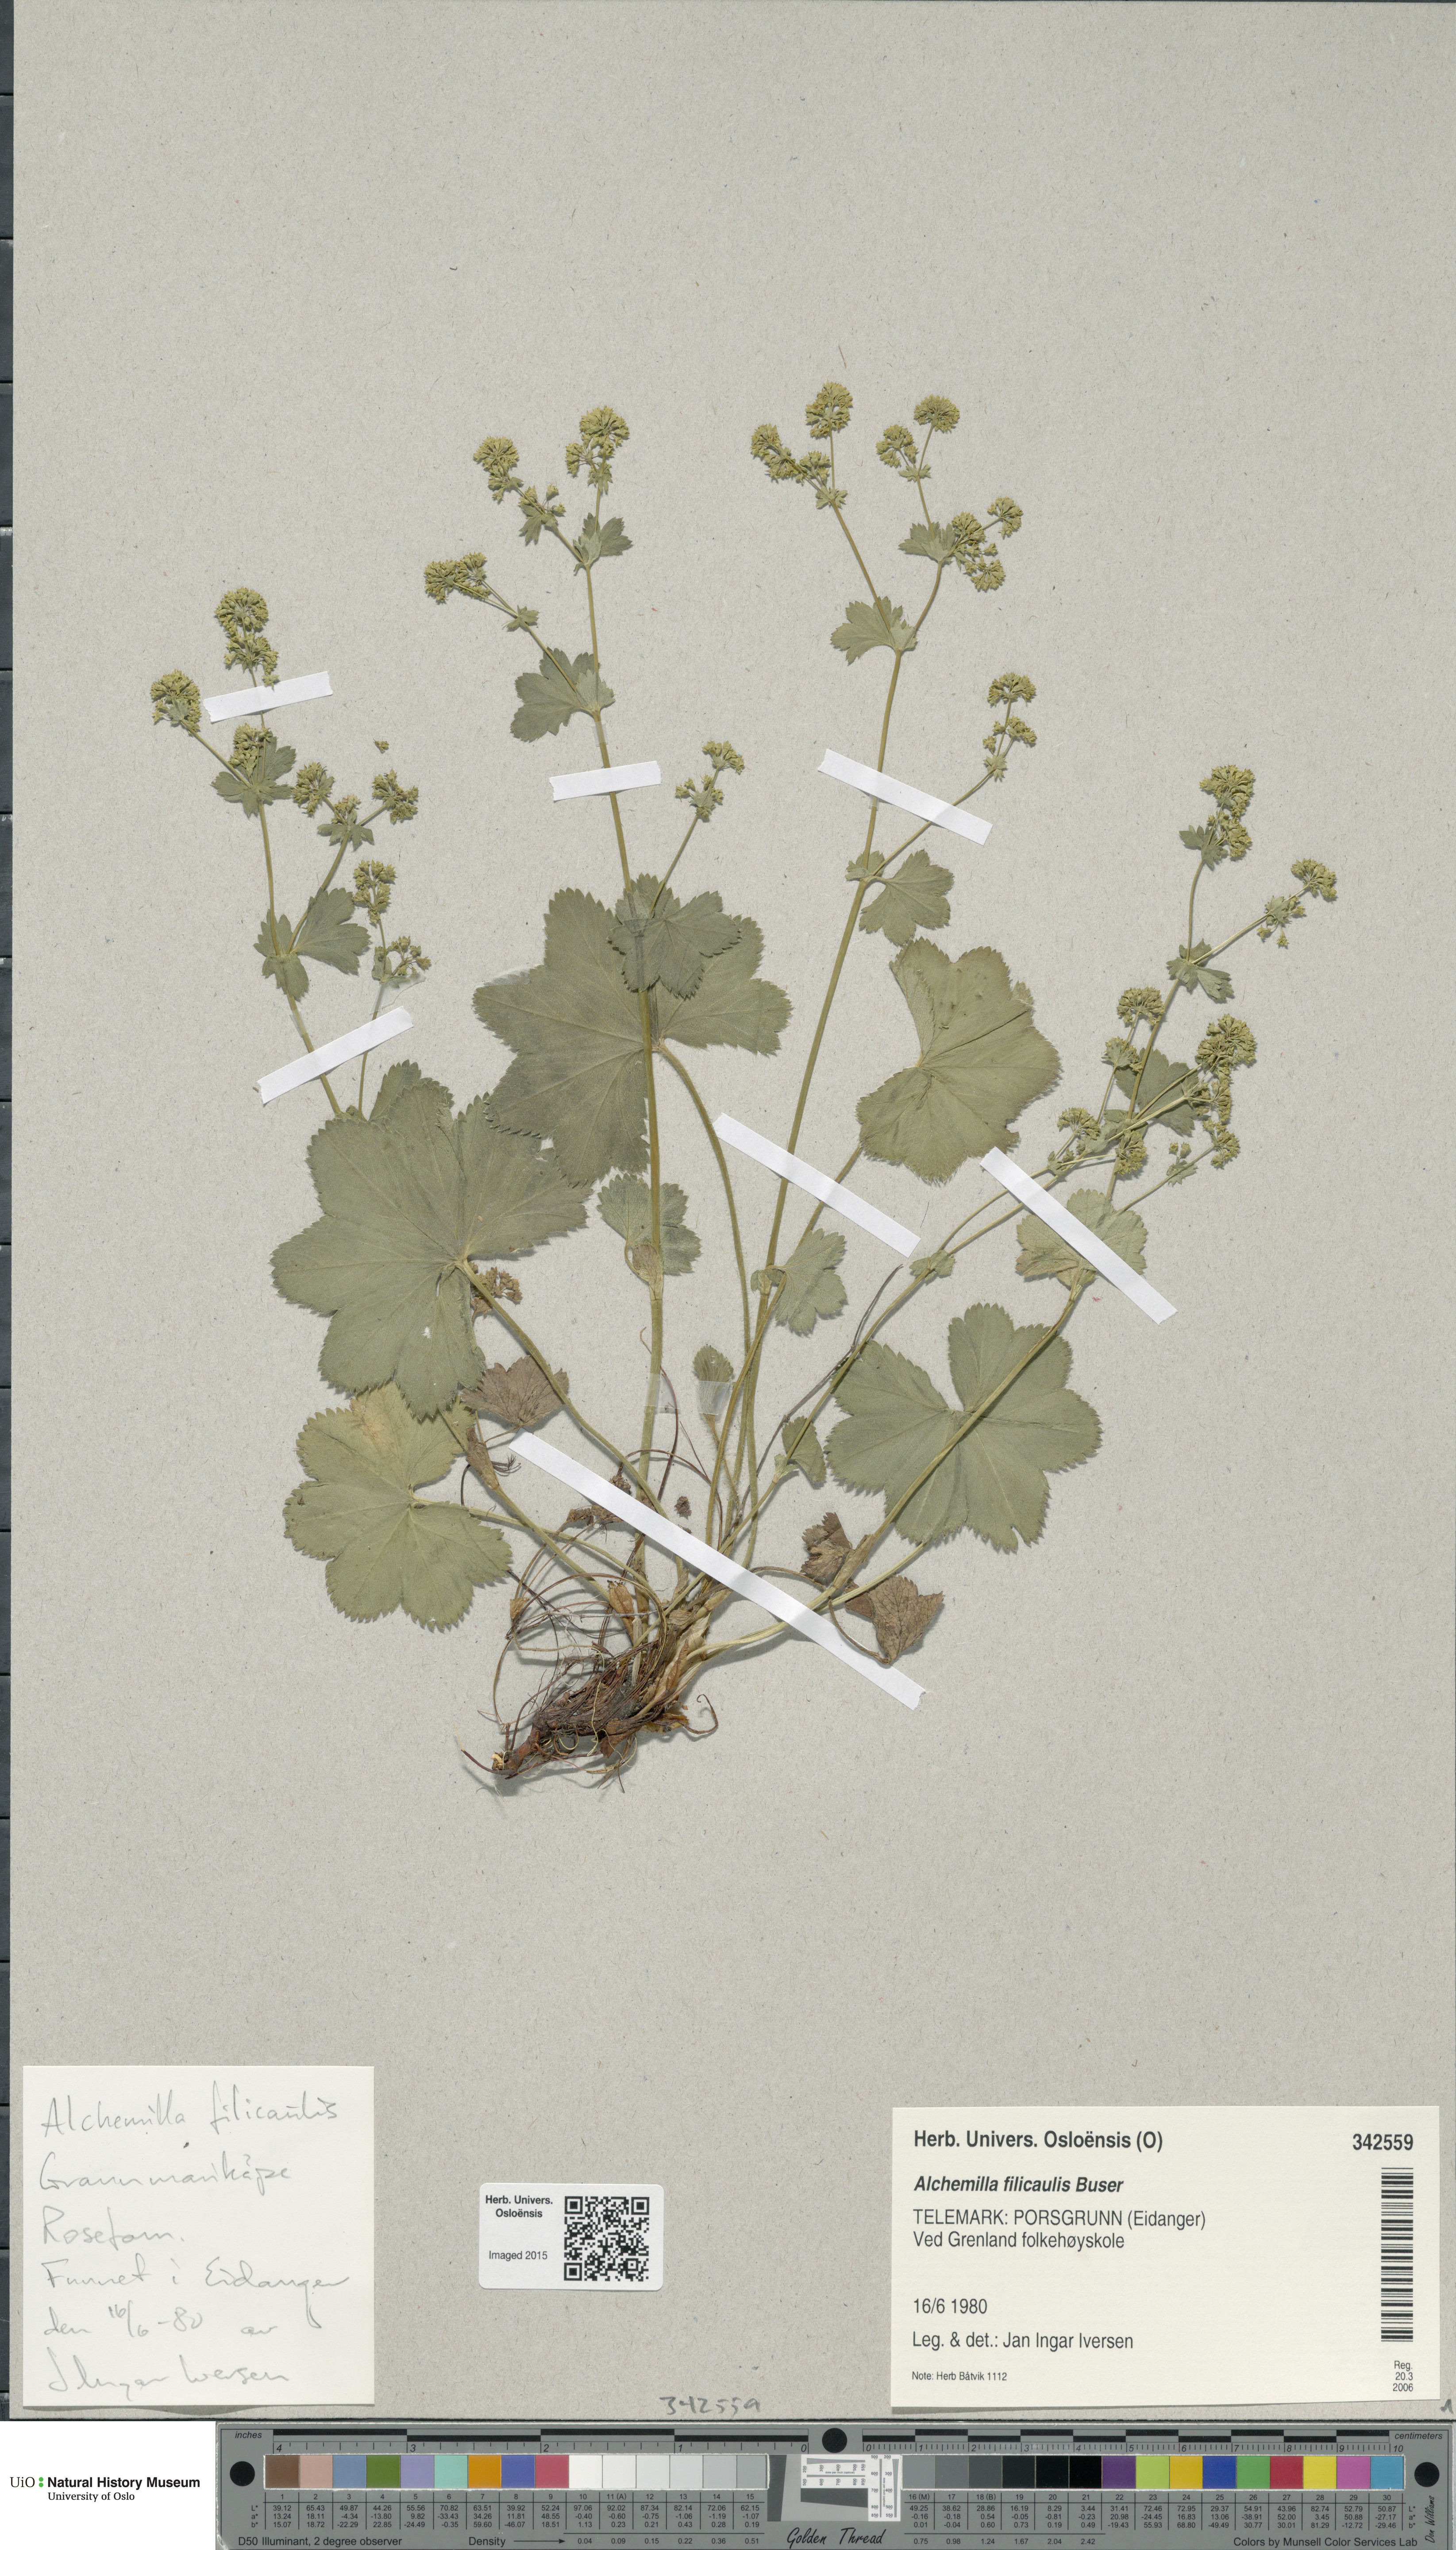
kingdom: Plantae
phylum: Tracheophyta
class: Magnoliopsida
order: Rosales
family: Rosaceae
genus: Alchemilla
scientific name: Alchemilla filicaulis
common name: Hairy lady's-mantle
